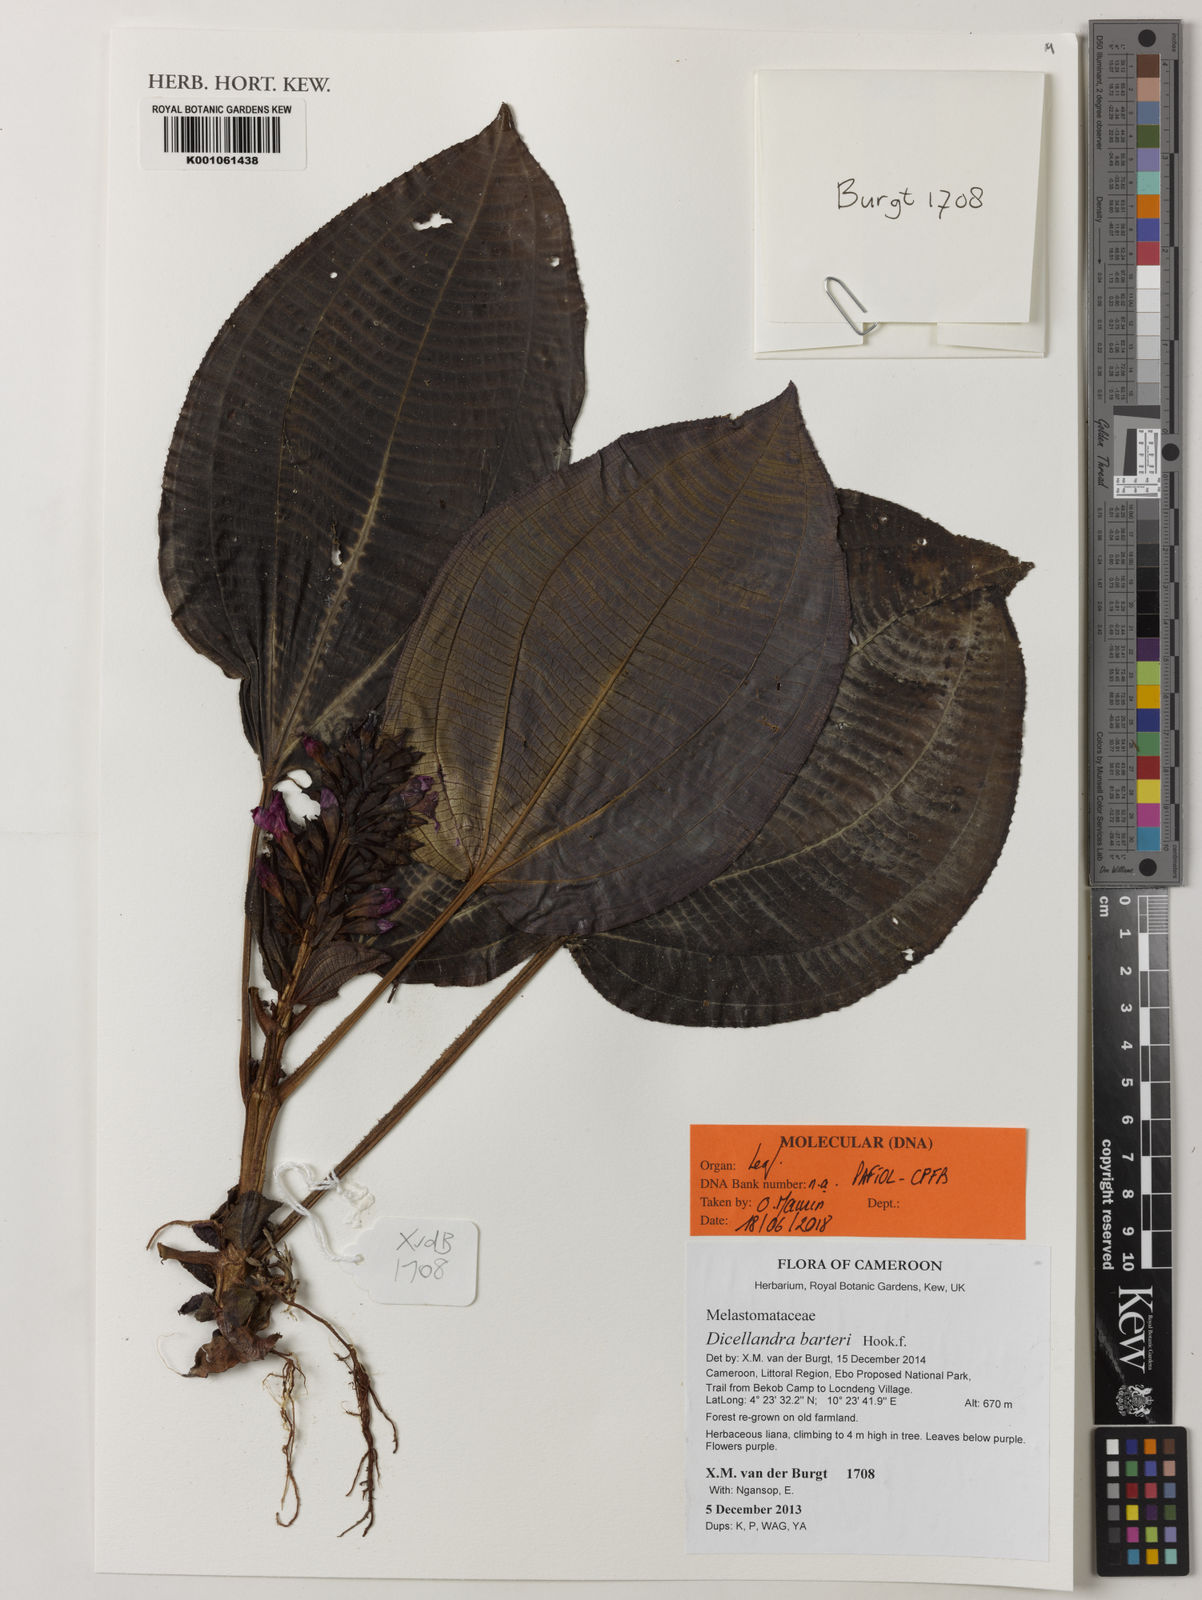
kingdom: Plantae
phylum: Tracheophyta
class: Magnoliopsida
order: Myrtales
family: Melastomataceae
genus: Dicellandra
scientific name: Dicellandra barteri
